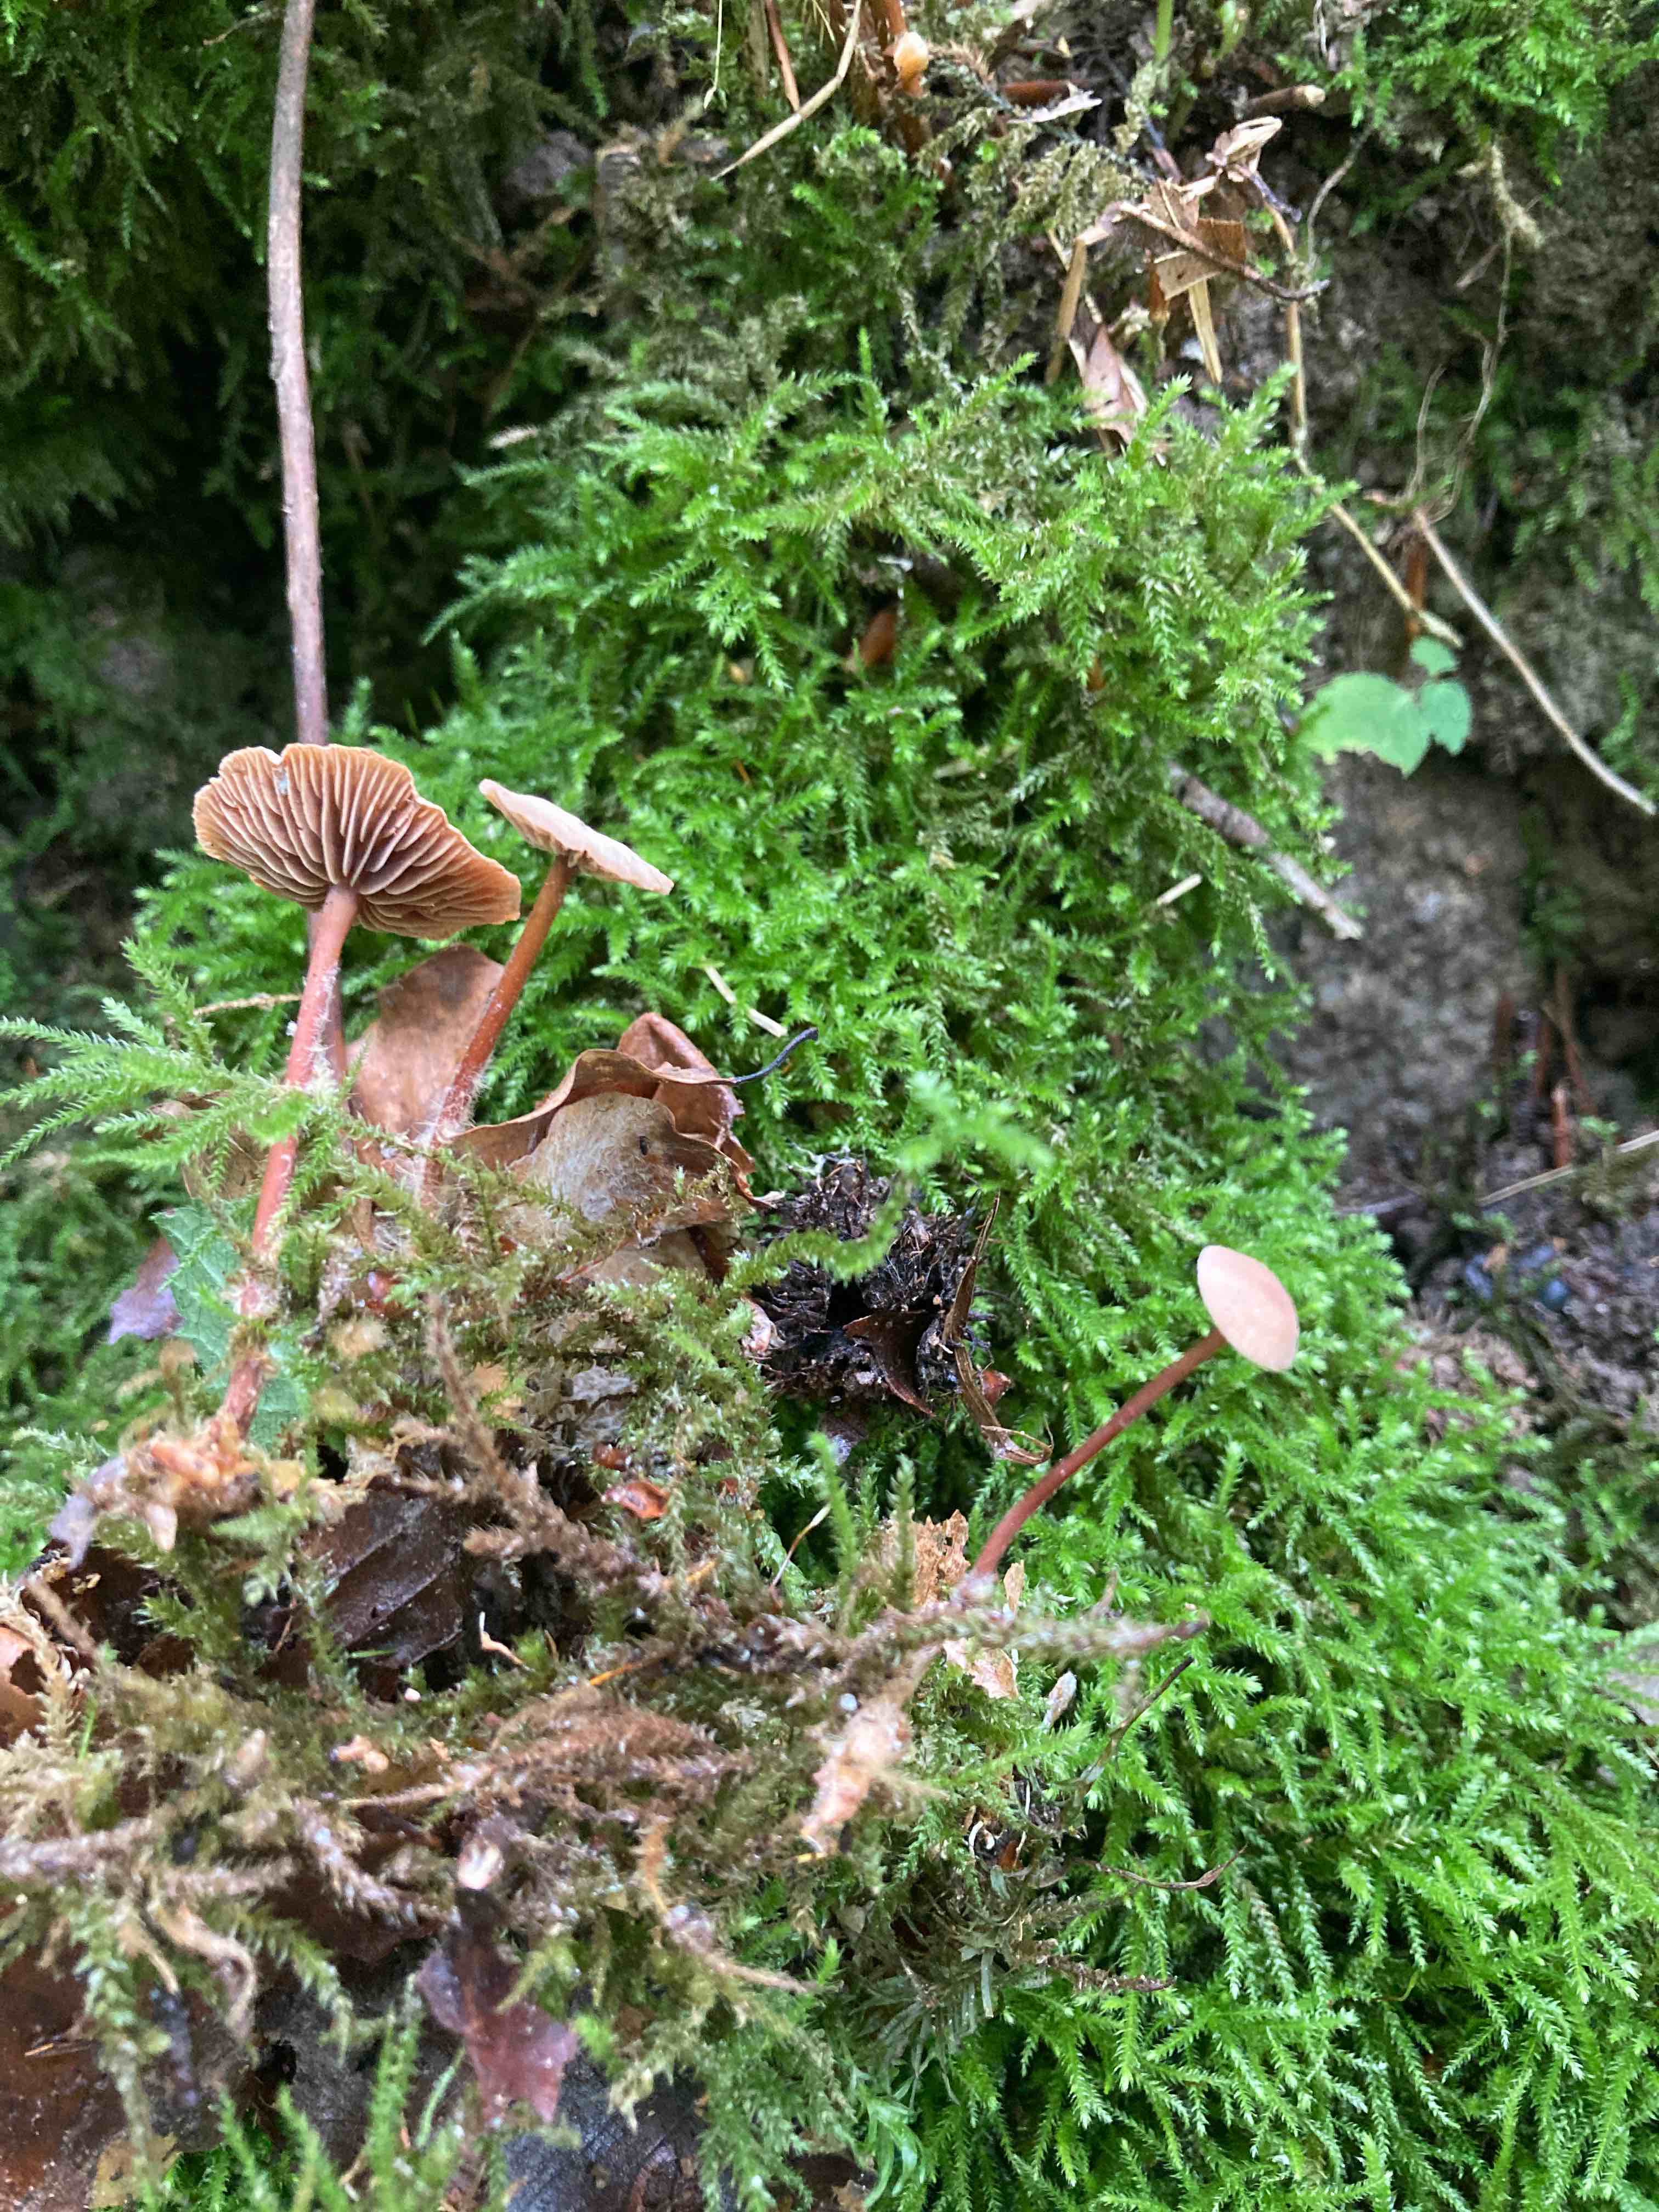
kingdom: Fungi
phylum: Basidiomycota
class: Agaricomycetes
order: Agaricales
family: Omphalotaceae
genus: Gymnopus
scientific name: Gymnopus fagiphilus
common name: bøgeløv-fladhat
